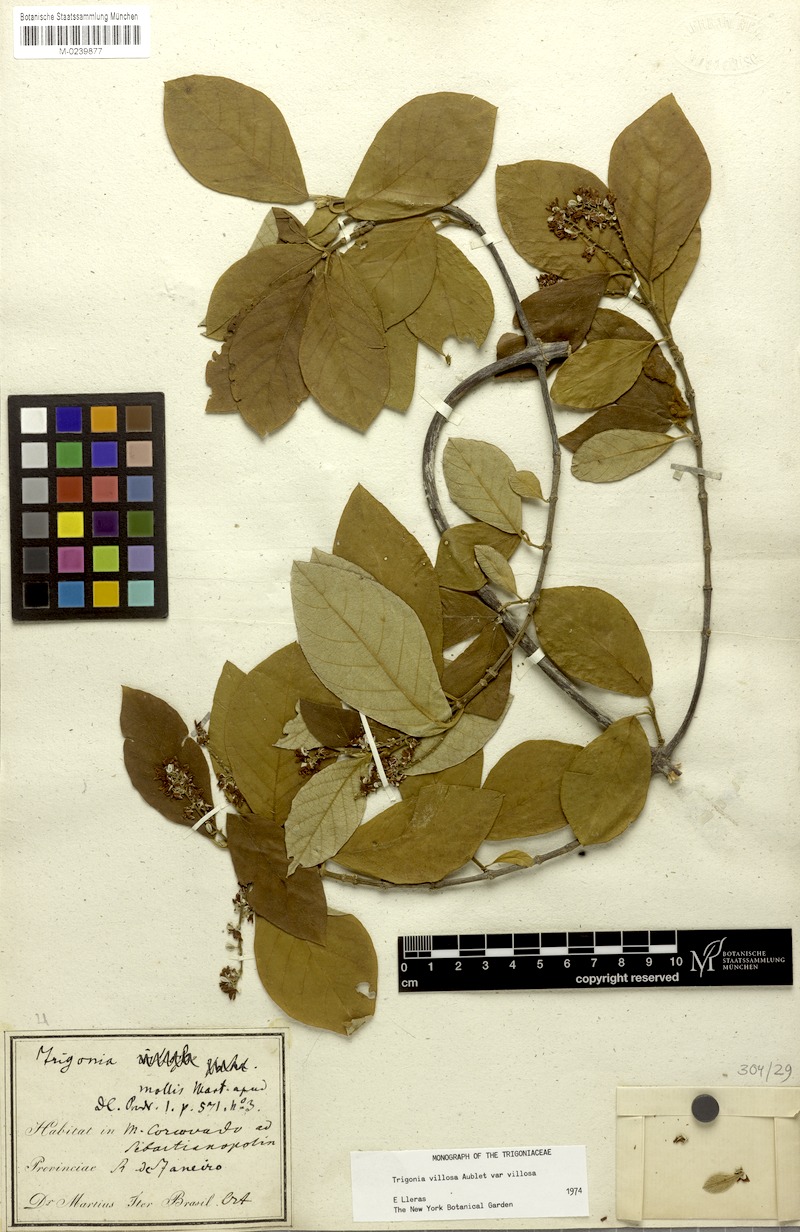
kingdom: Plantae
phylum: Tracheophyta
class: Magnoliopsida
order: Malpighiales
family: Trigoniaceae
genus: Trigonia
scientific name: Trigonia villosa
